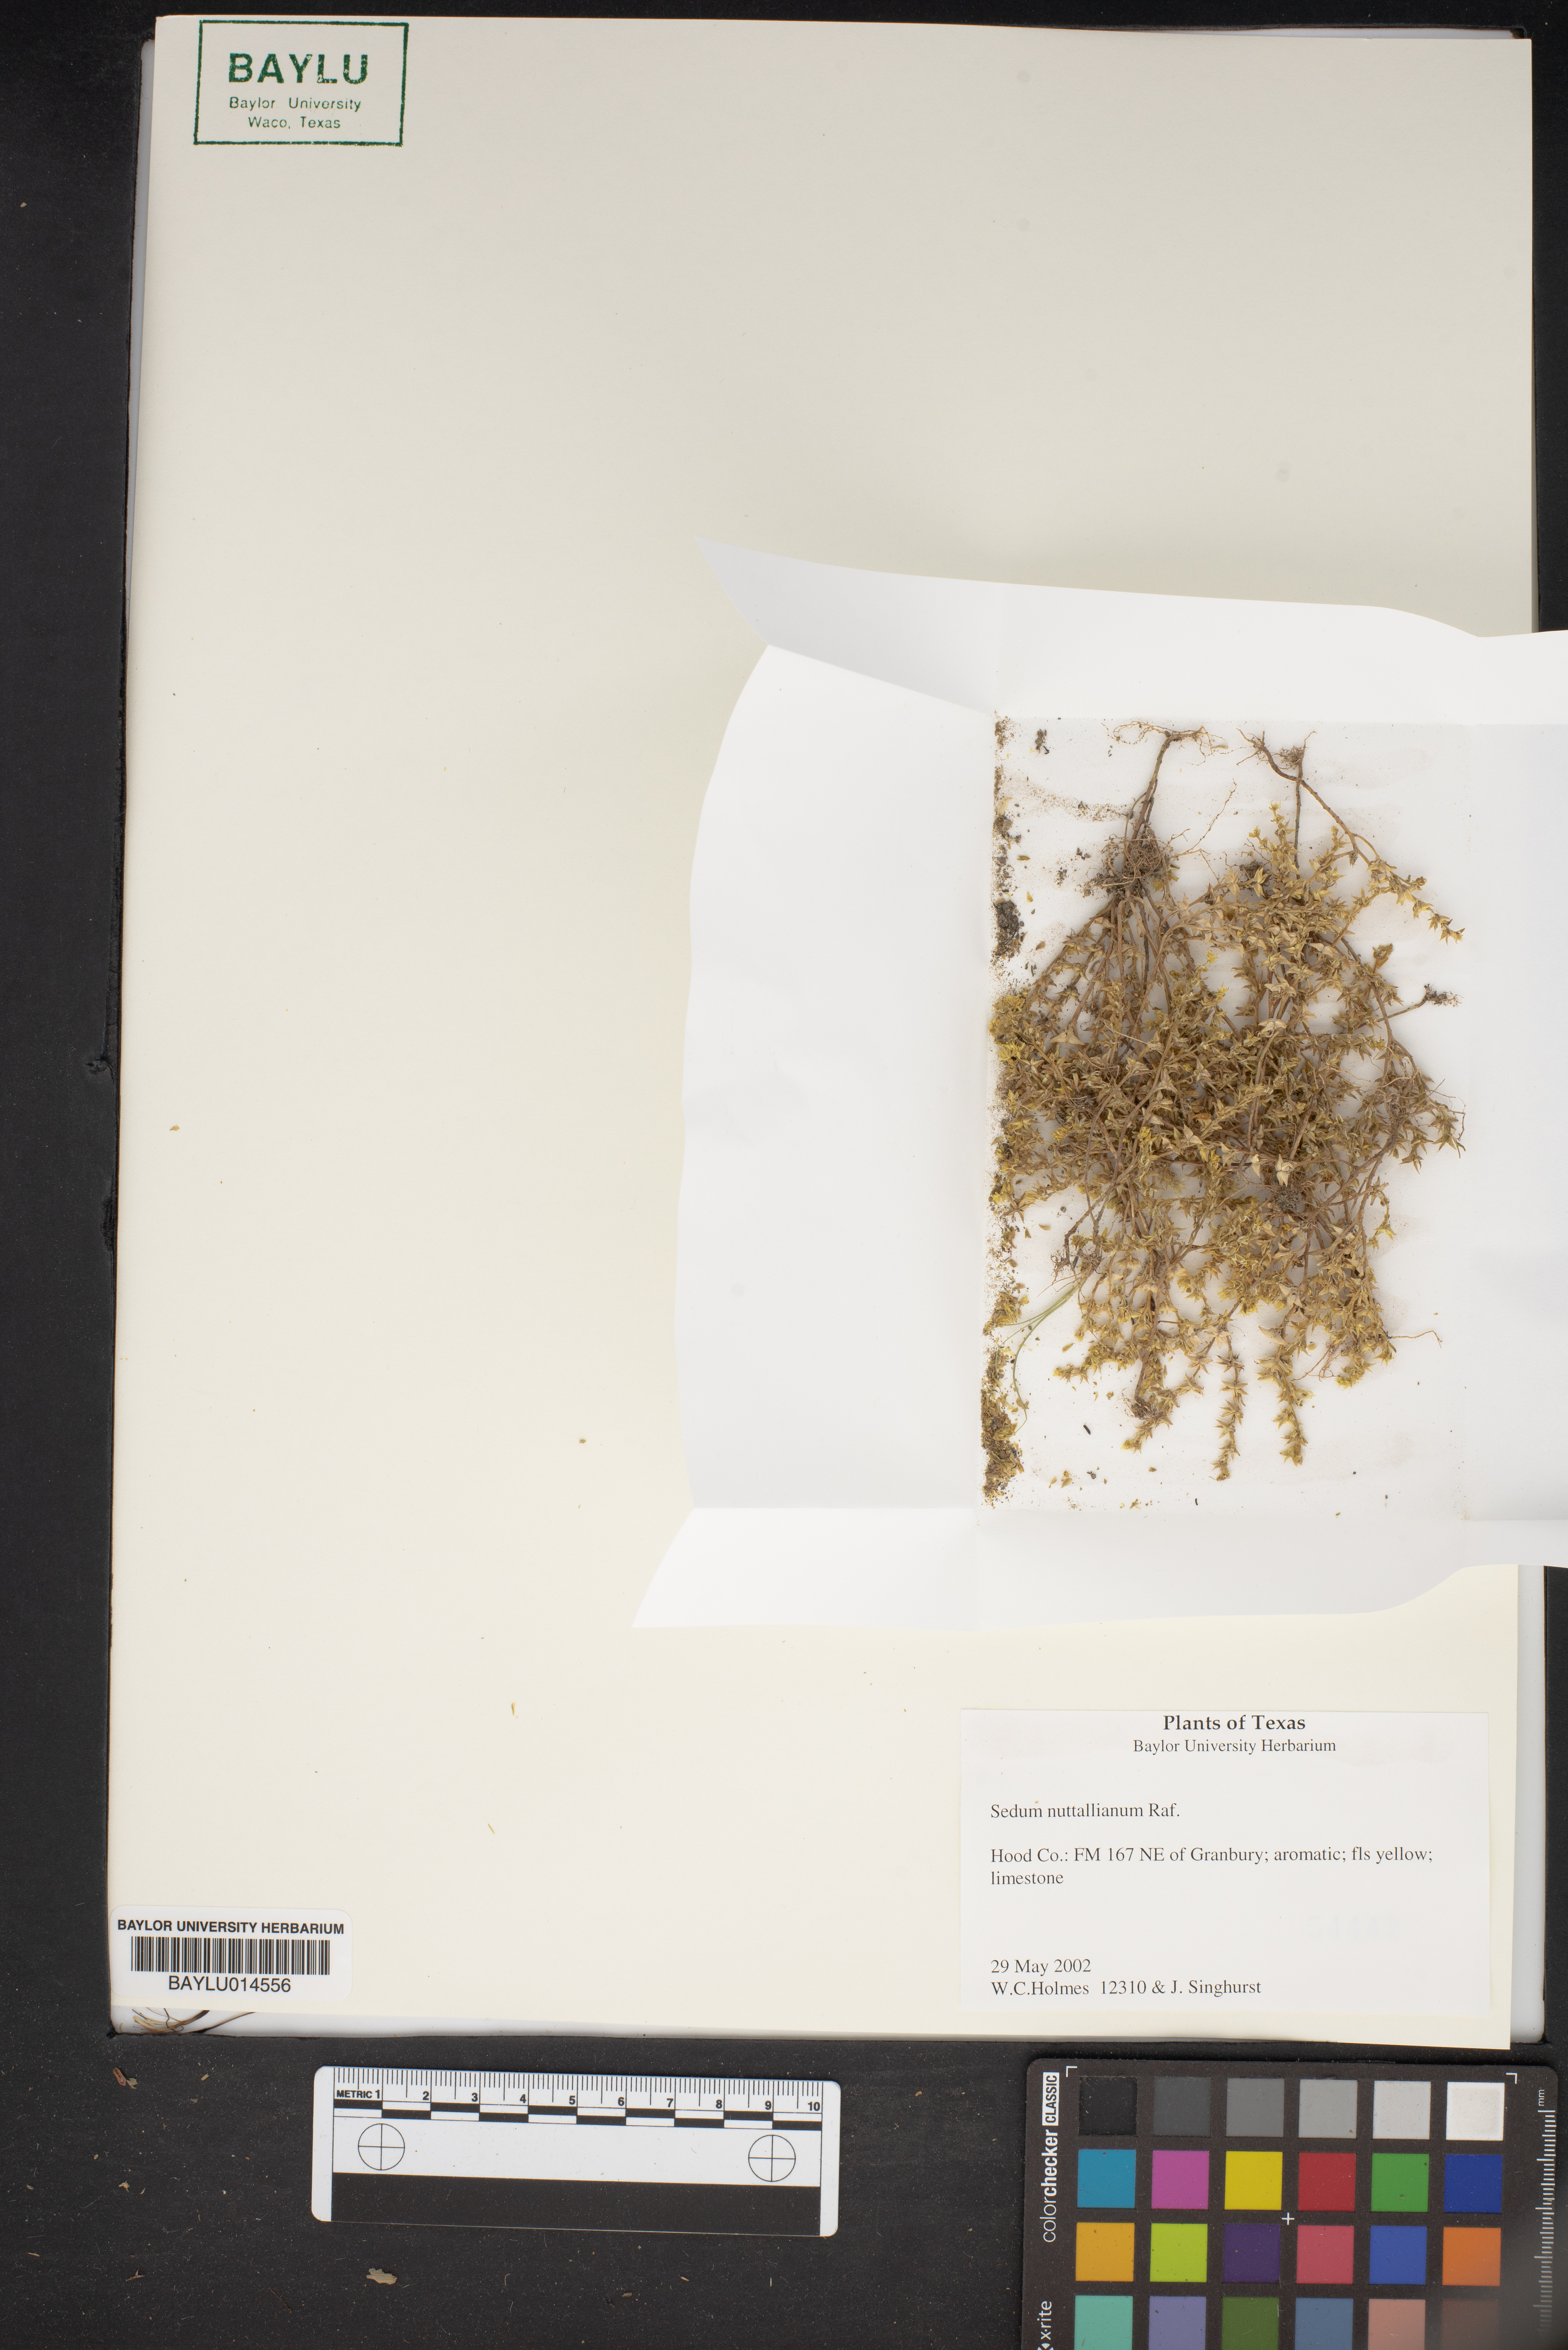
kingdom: Plantae
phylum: Tracheophyta
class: Magnoliopsida
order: Saxifragales
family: Crassulaceae
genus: Sedum
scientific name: Sedum nuttallii
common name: Yellow stonecrop
